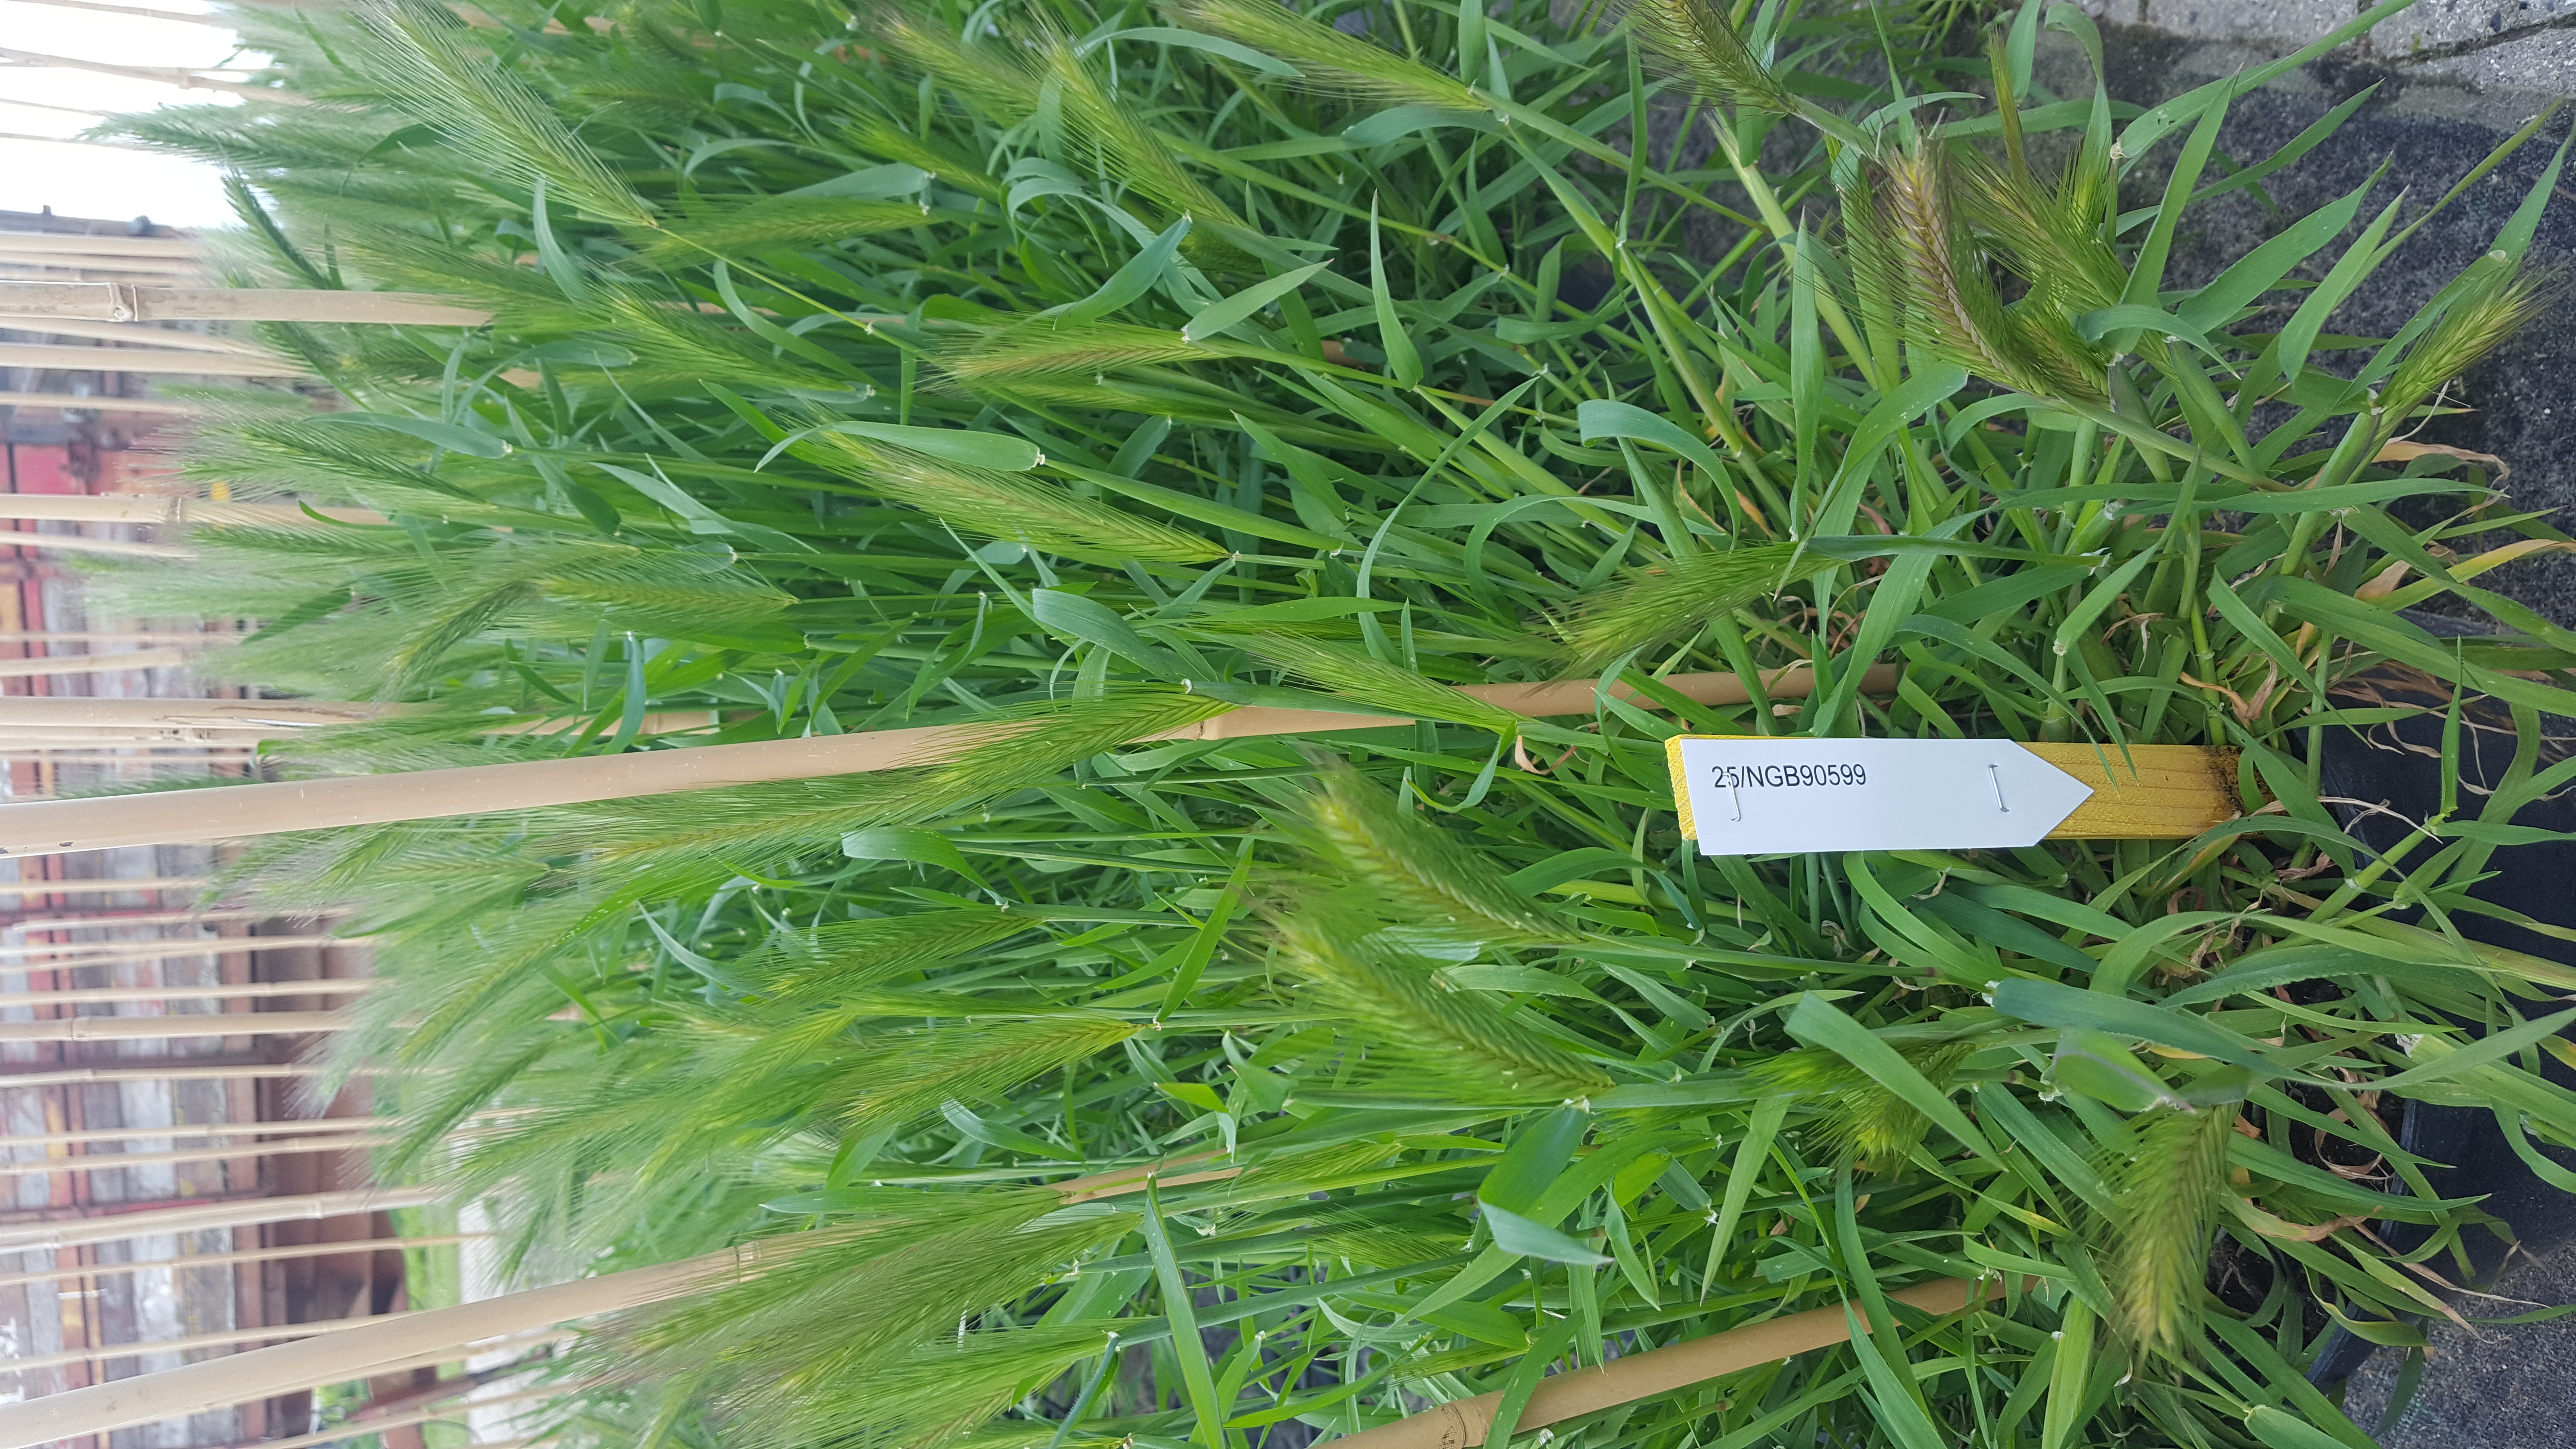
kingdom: Plantae
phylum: Tracheophyta
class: Liliopsida
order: Poales
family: Poaceae
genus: Hordeum
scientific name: Hordeum murinum
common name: Wall barley
